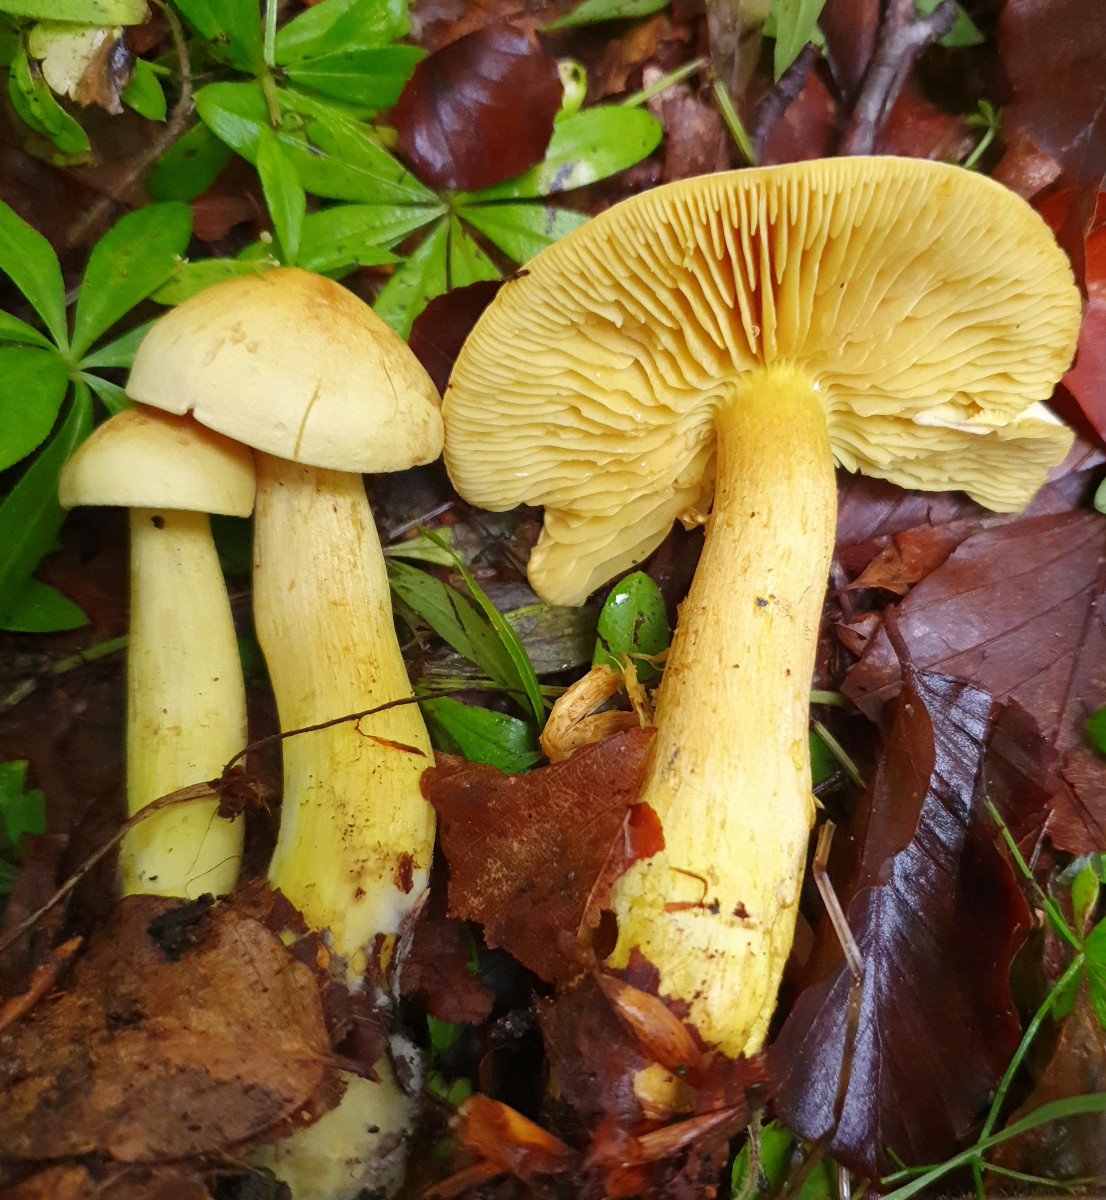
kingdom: Fungi
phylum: Basidiomycota
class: Agaricomycetes
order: Agaricales
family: Tricholomataceae
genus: Tricholoma
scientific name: Tricholoma sulphureum
